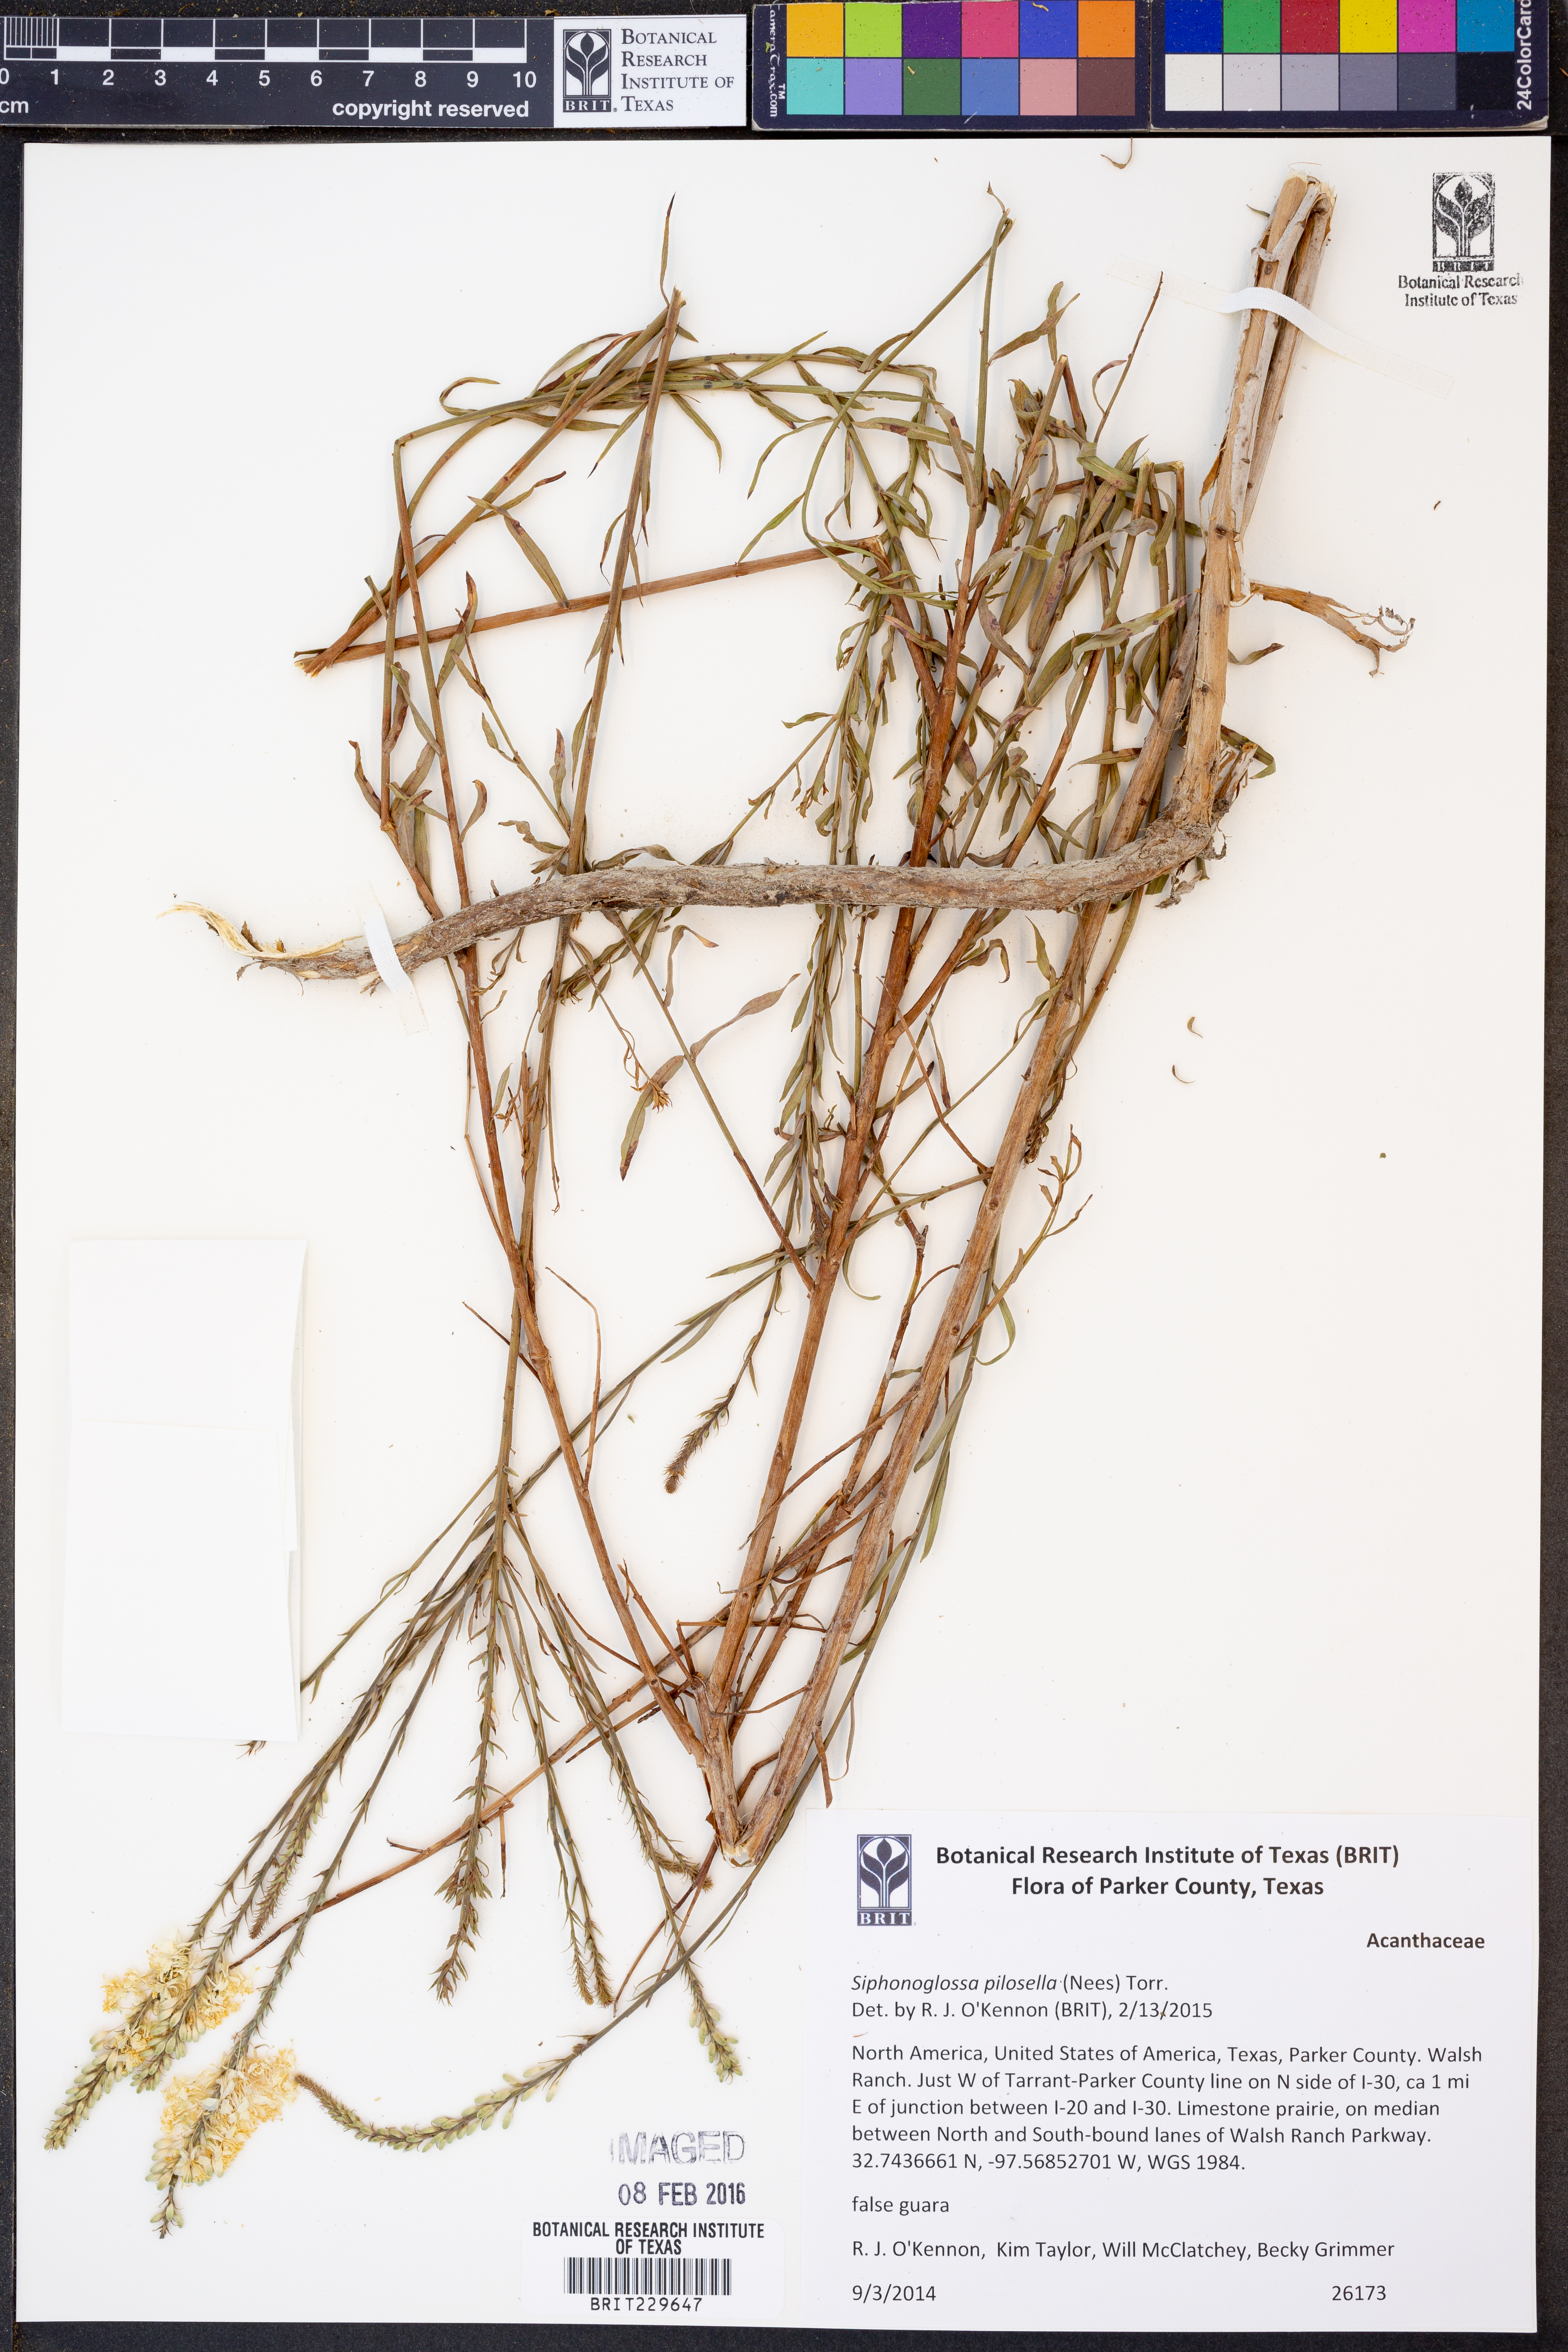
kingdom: Plantae
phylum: Tracheophyta
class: Magnoliopsida
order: Lamiales
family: Acanthaceae
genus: Justicia
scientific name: Justicia pilosella
